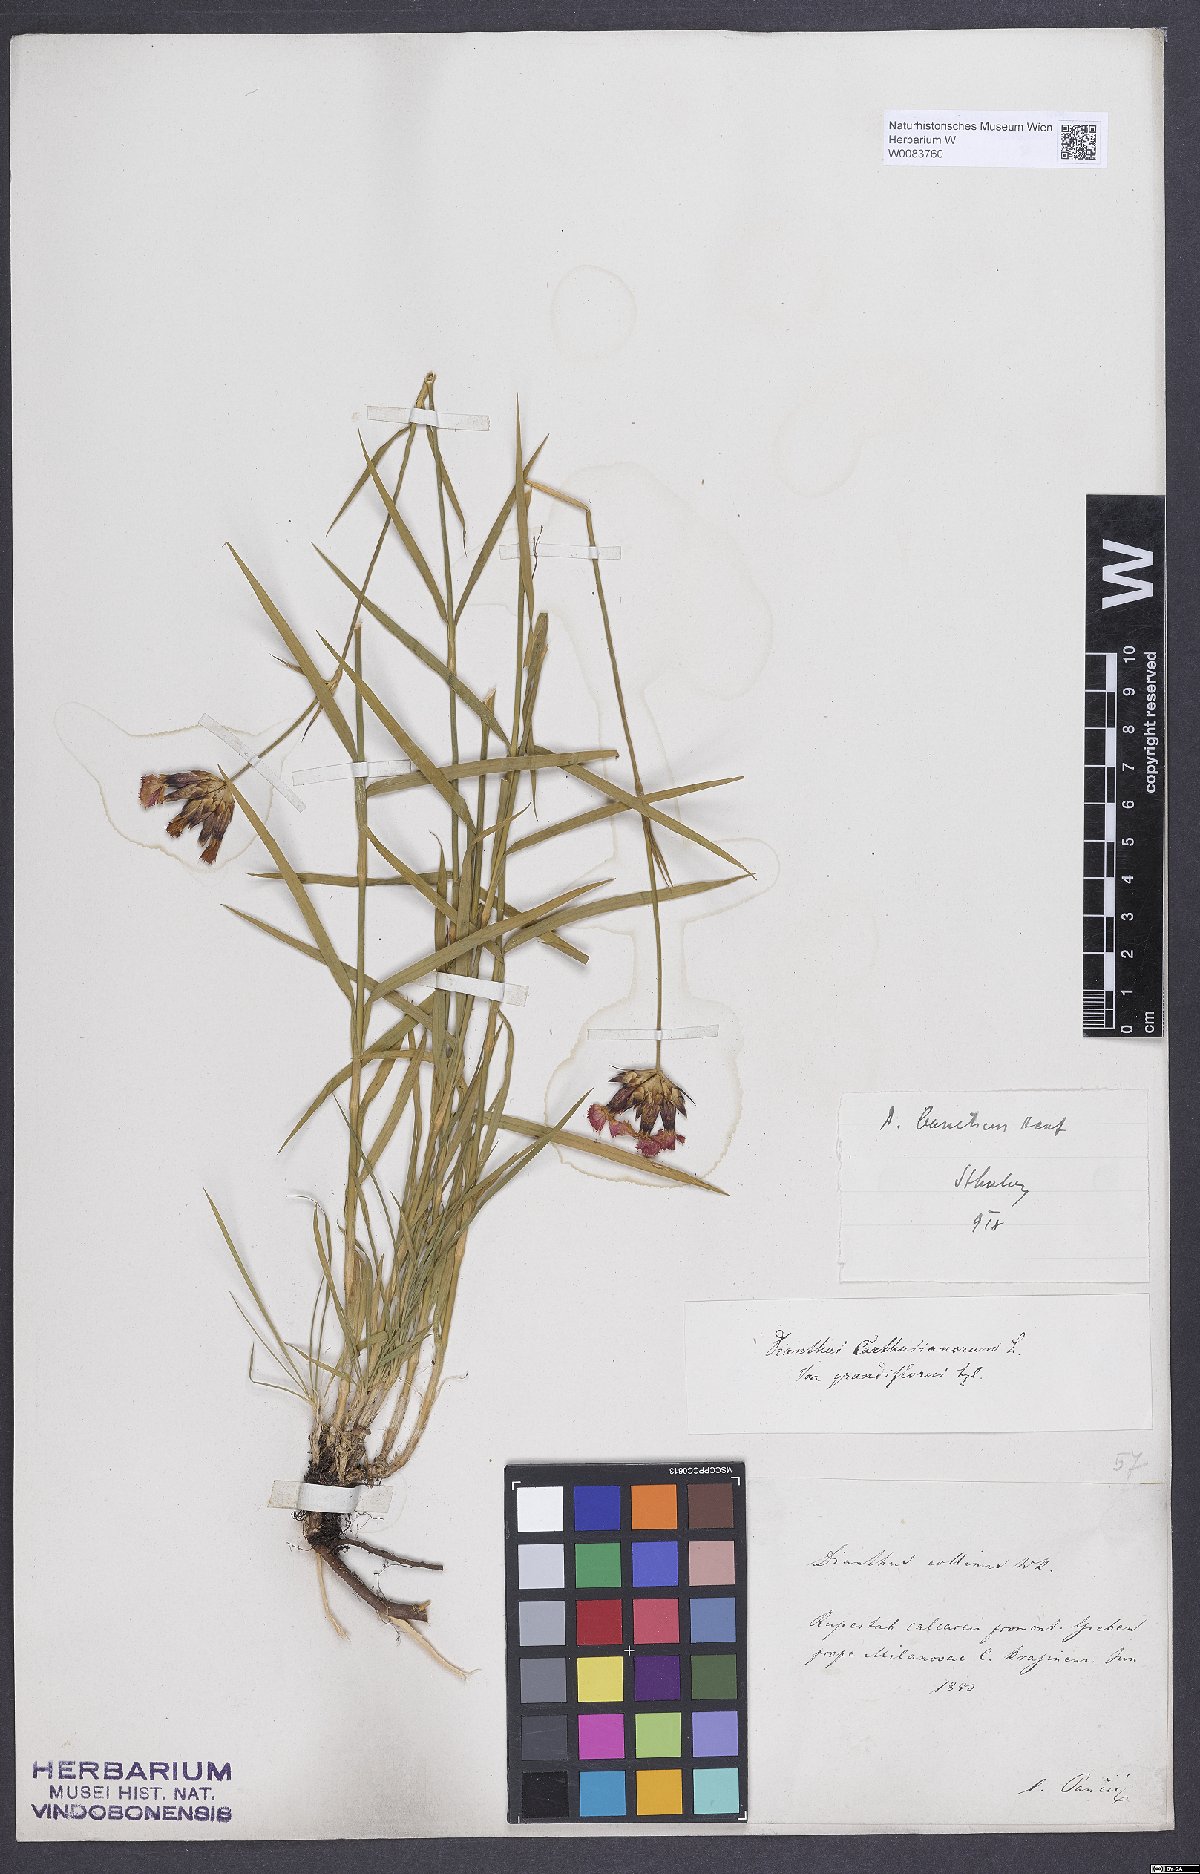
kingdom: Plantae
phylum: Tracheophyta
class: Magnoliopsida
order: Caryophyllales
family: Caryophyllaceae
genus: Dianthus
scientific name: Dianthus giganteus
